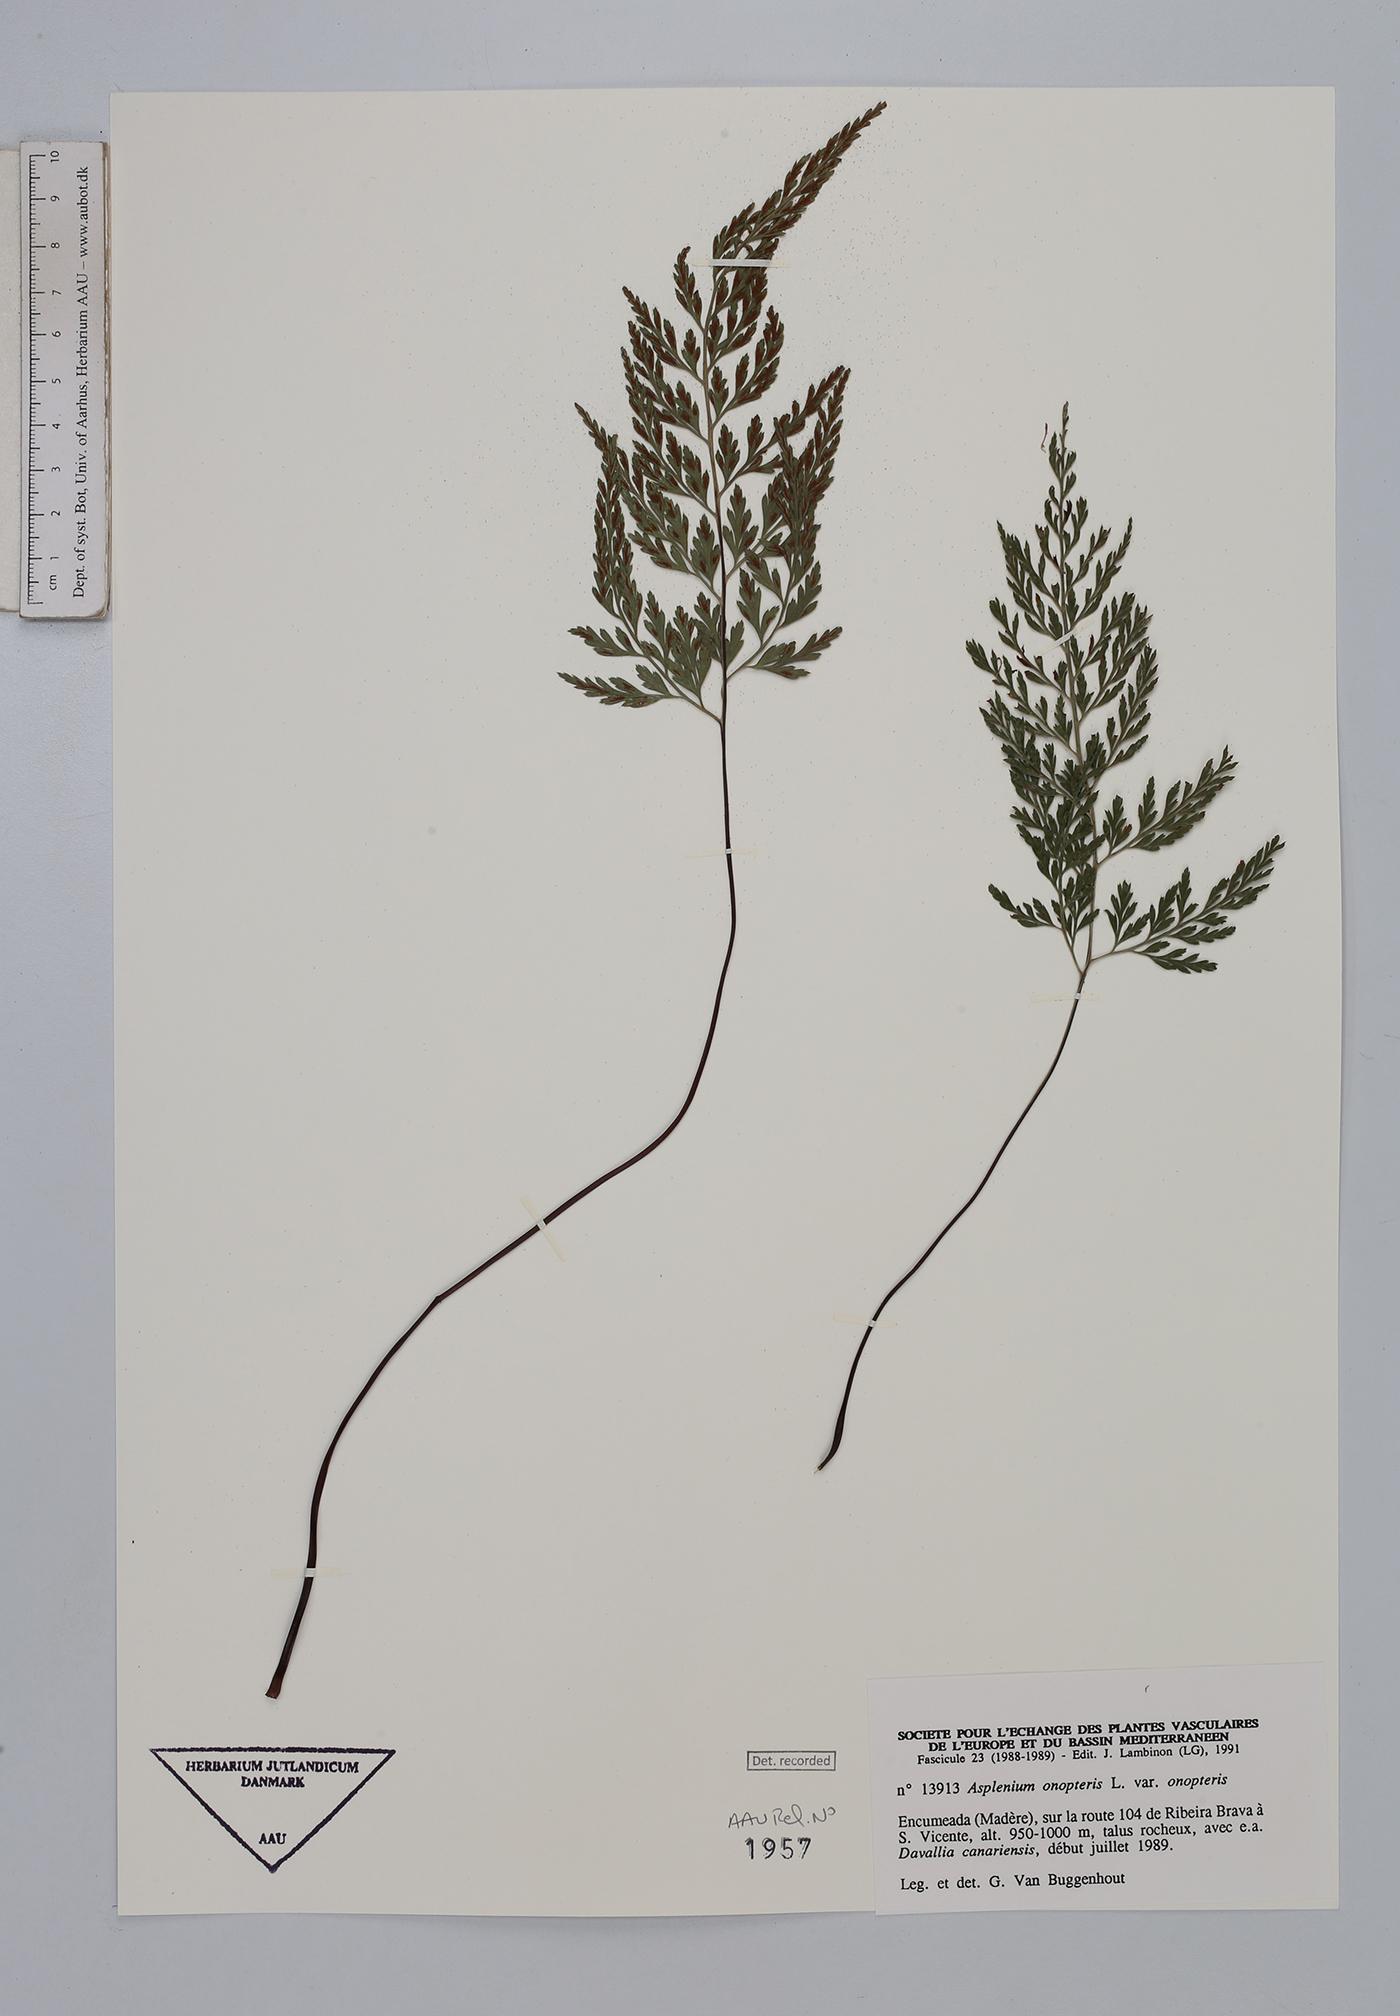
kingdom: Plantae
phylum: Tracheophyta
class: Polypodiopsida
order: Polypodiales
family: Aspleniaceae
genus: Asplenium
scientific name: Asplenium onopteris
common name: Irish spleenwort
